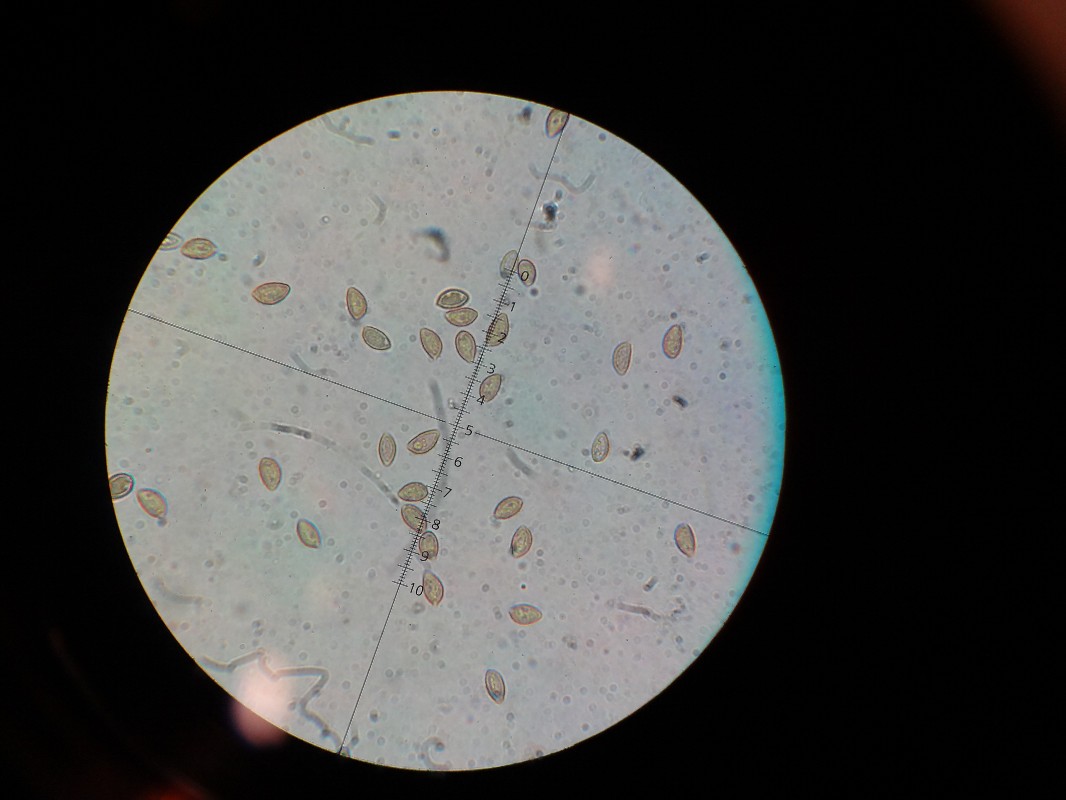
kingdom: Fungi
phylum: Basidiomycota
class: Agaricomycetes
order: Agaricales
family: Hymenogastraceae
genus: Hebeloma
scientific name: Hebeloma
